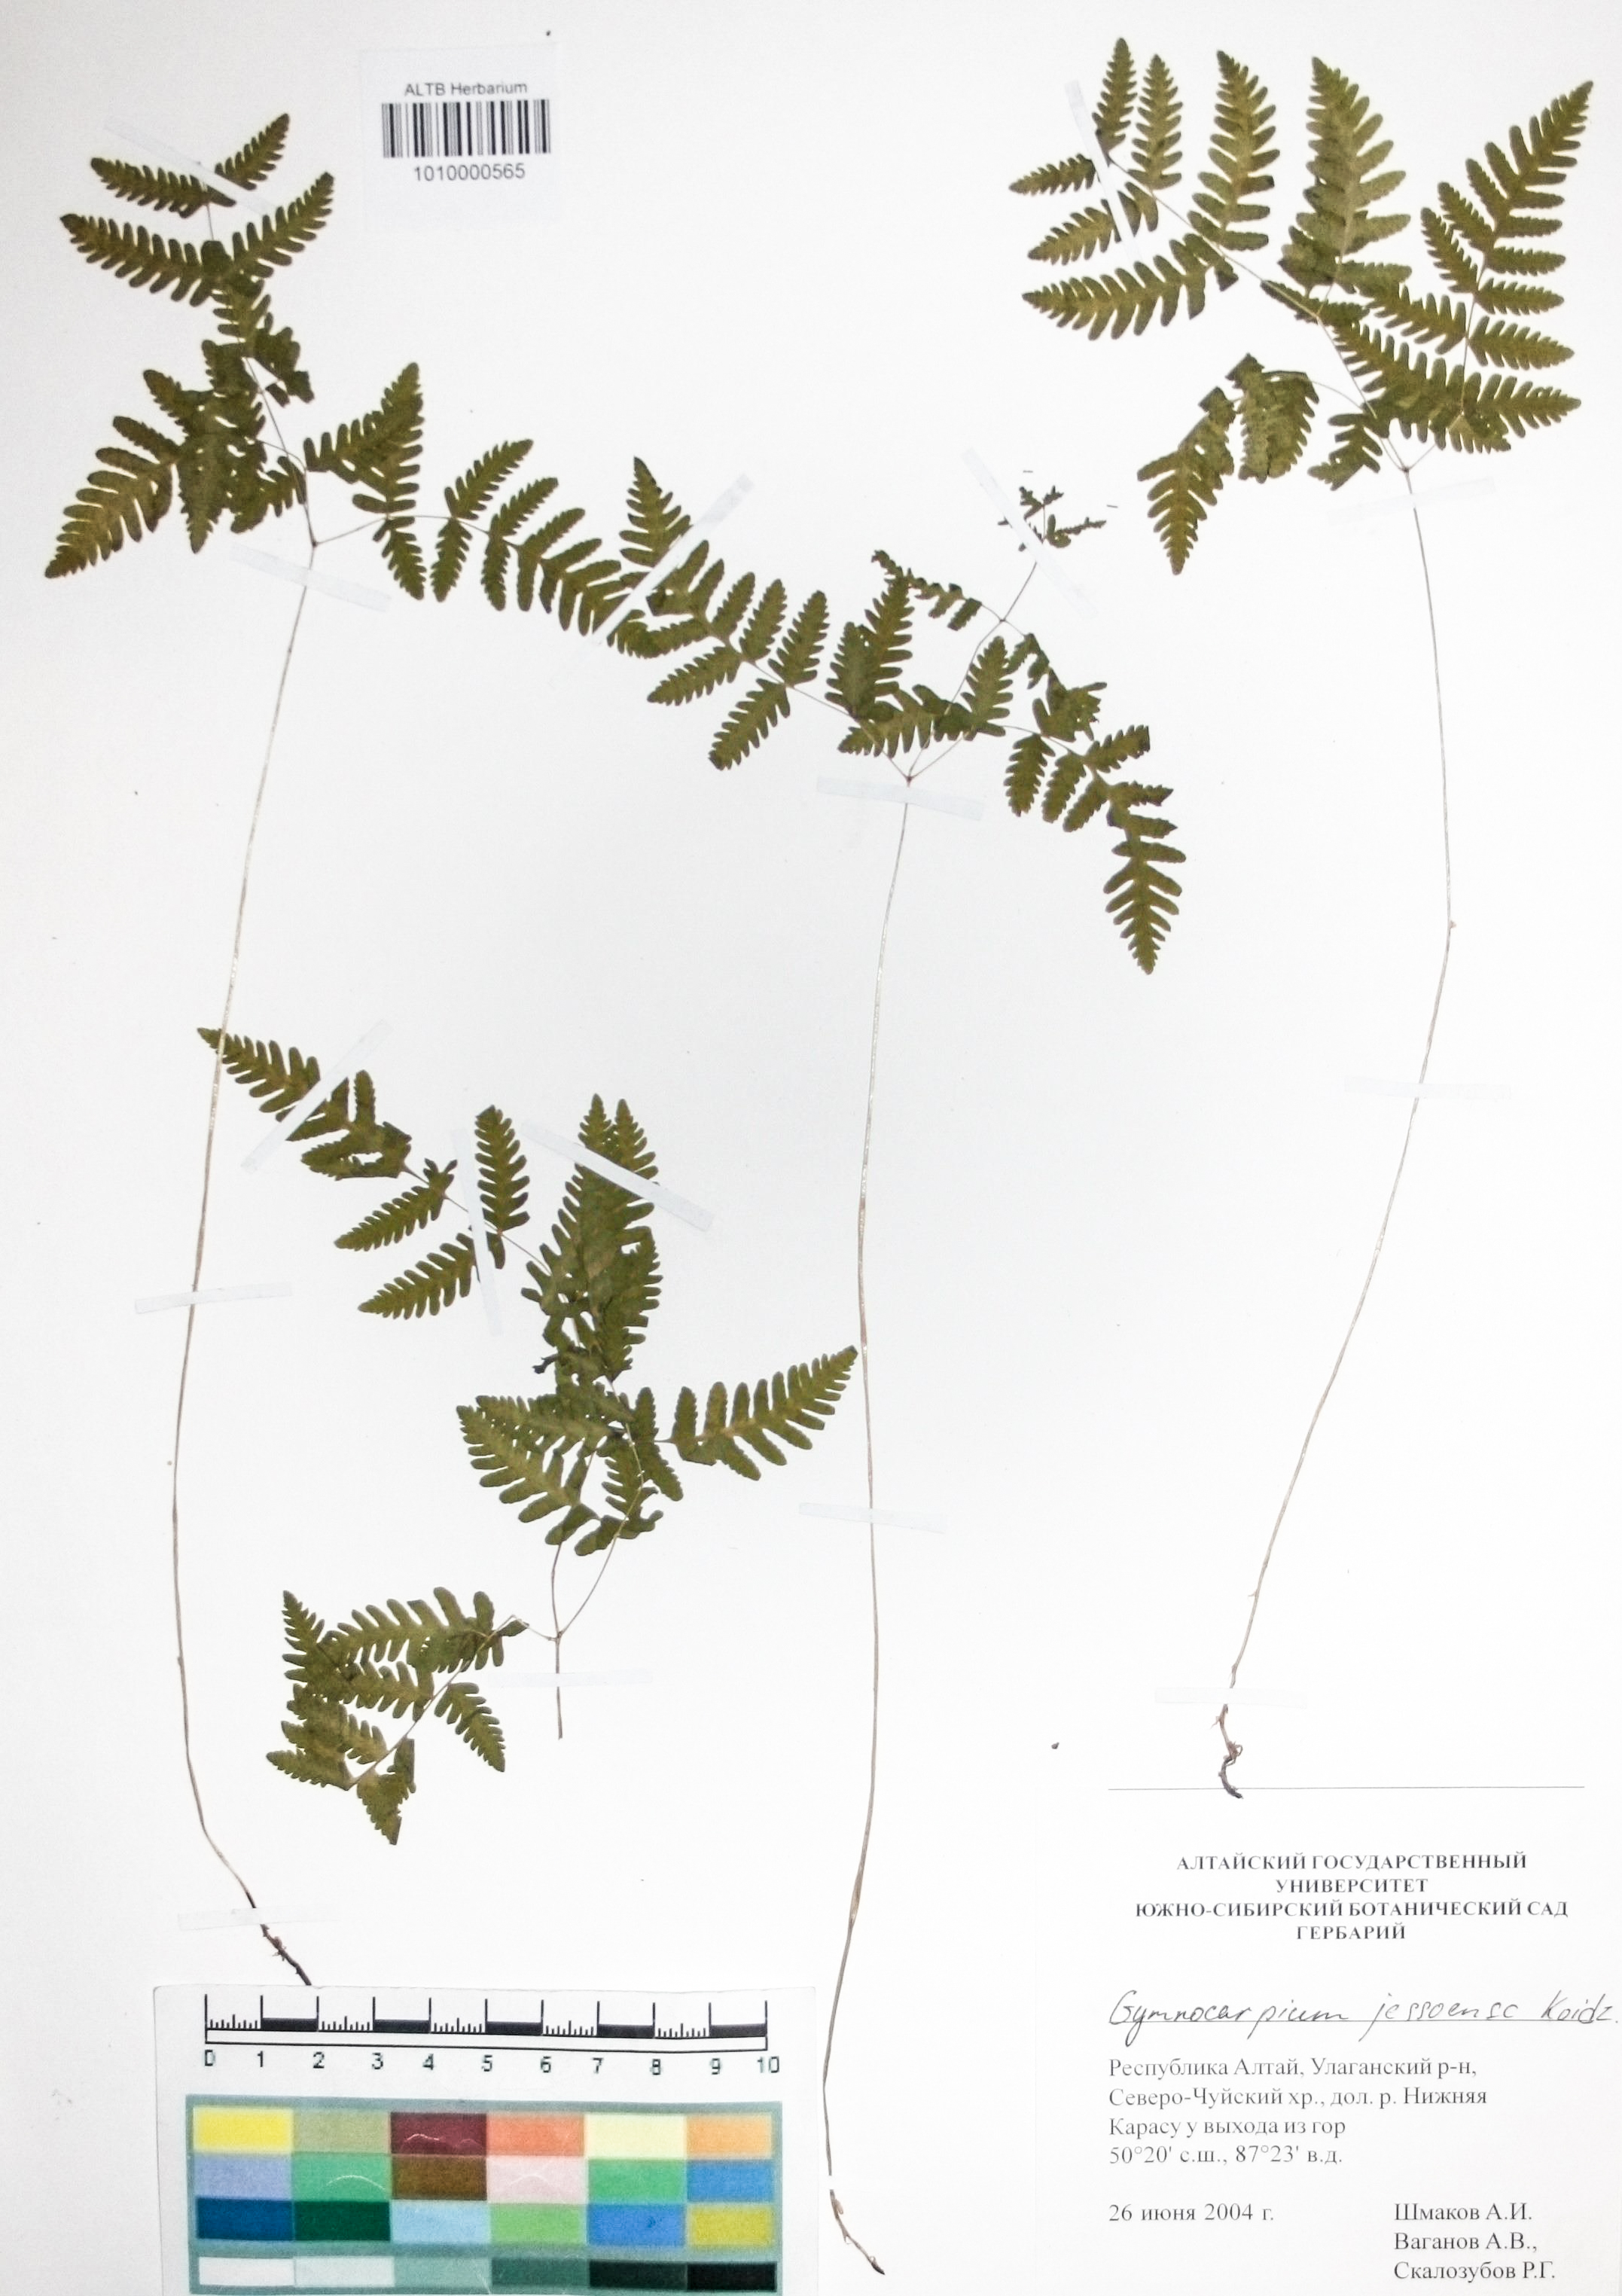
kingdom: Plantae
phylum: Tracheophyta
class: Polypodiopsida
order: Polypodiales
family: Cystopteridaceae
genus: Gymnocarpium
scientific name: Gymnocarpium jessoense
